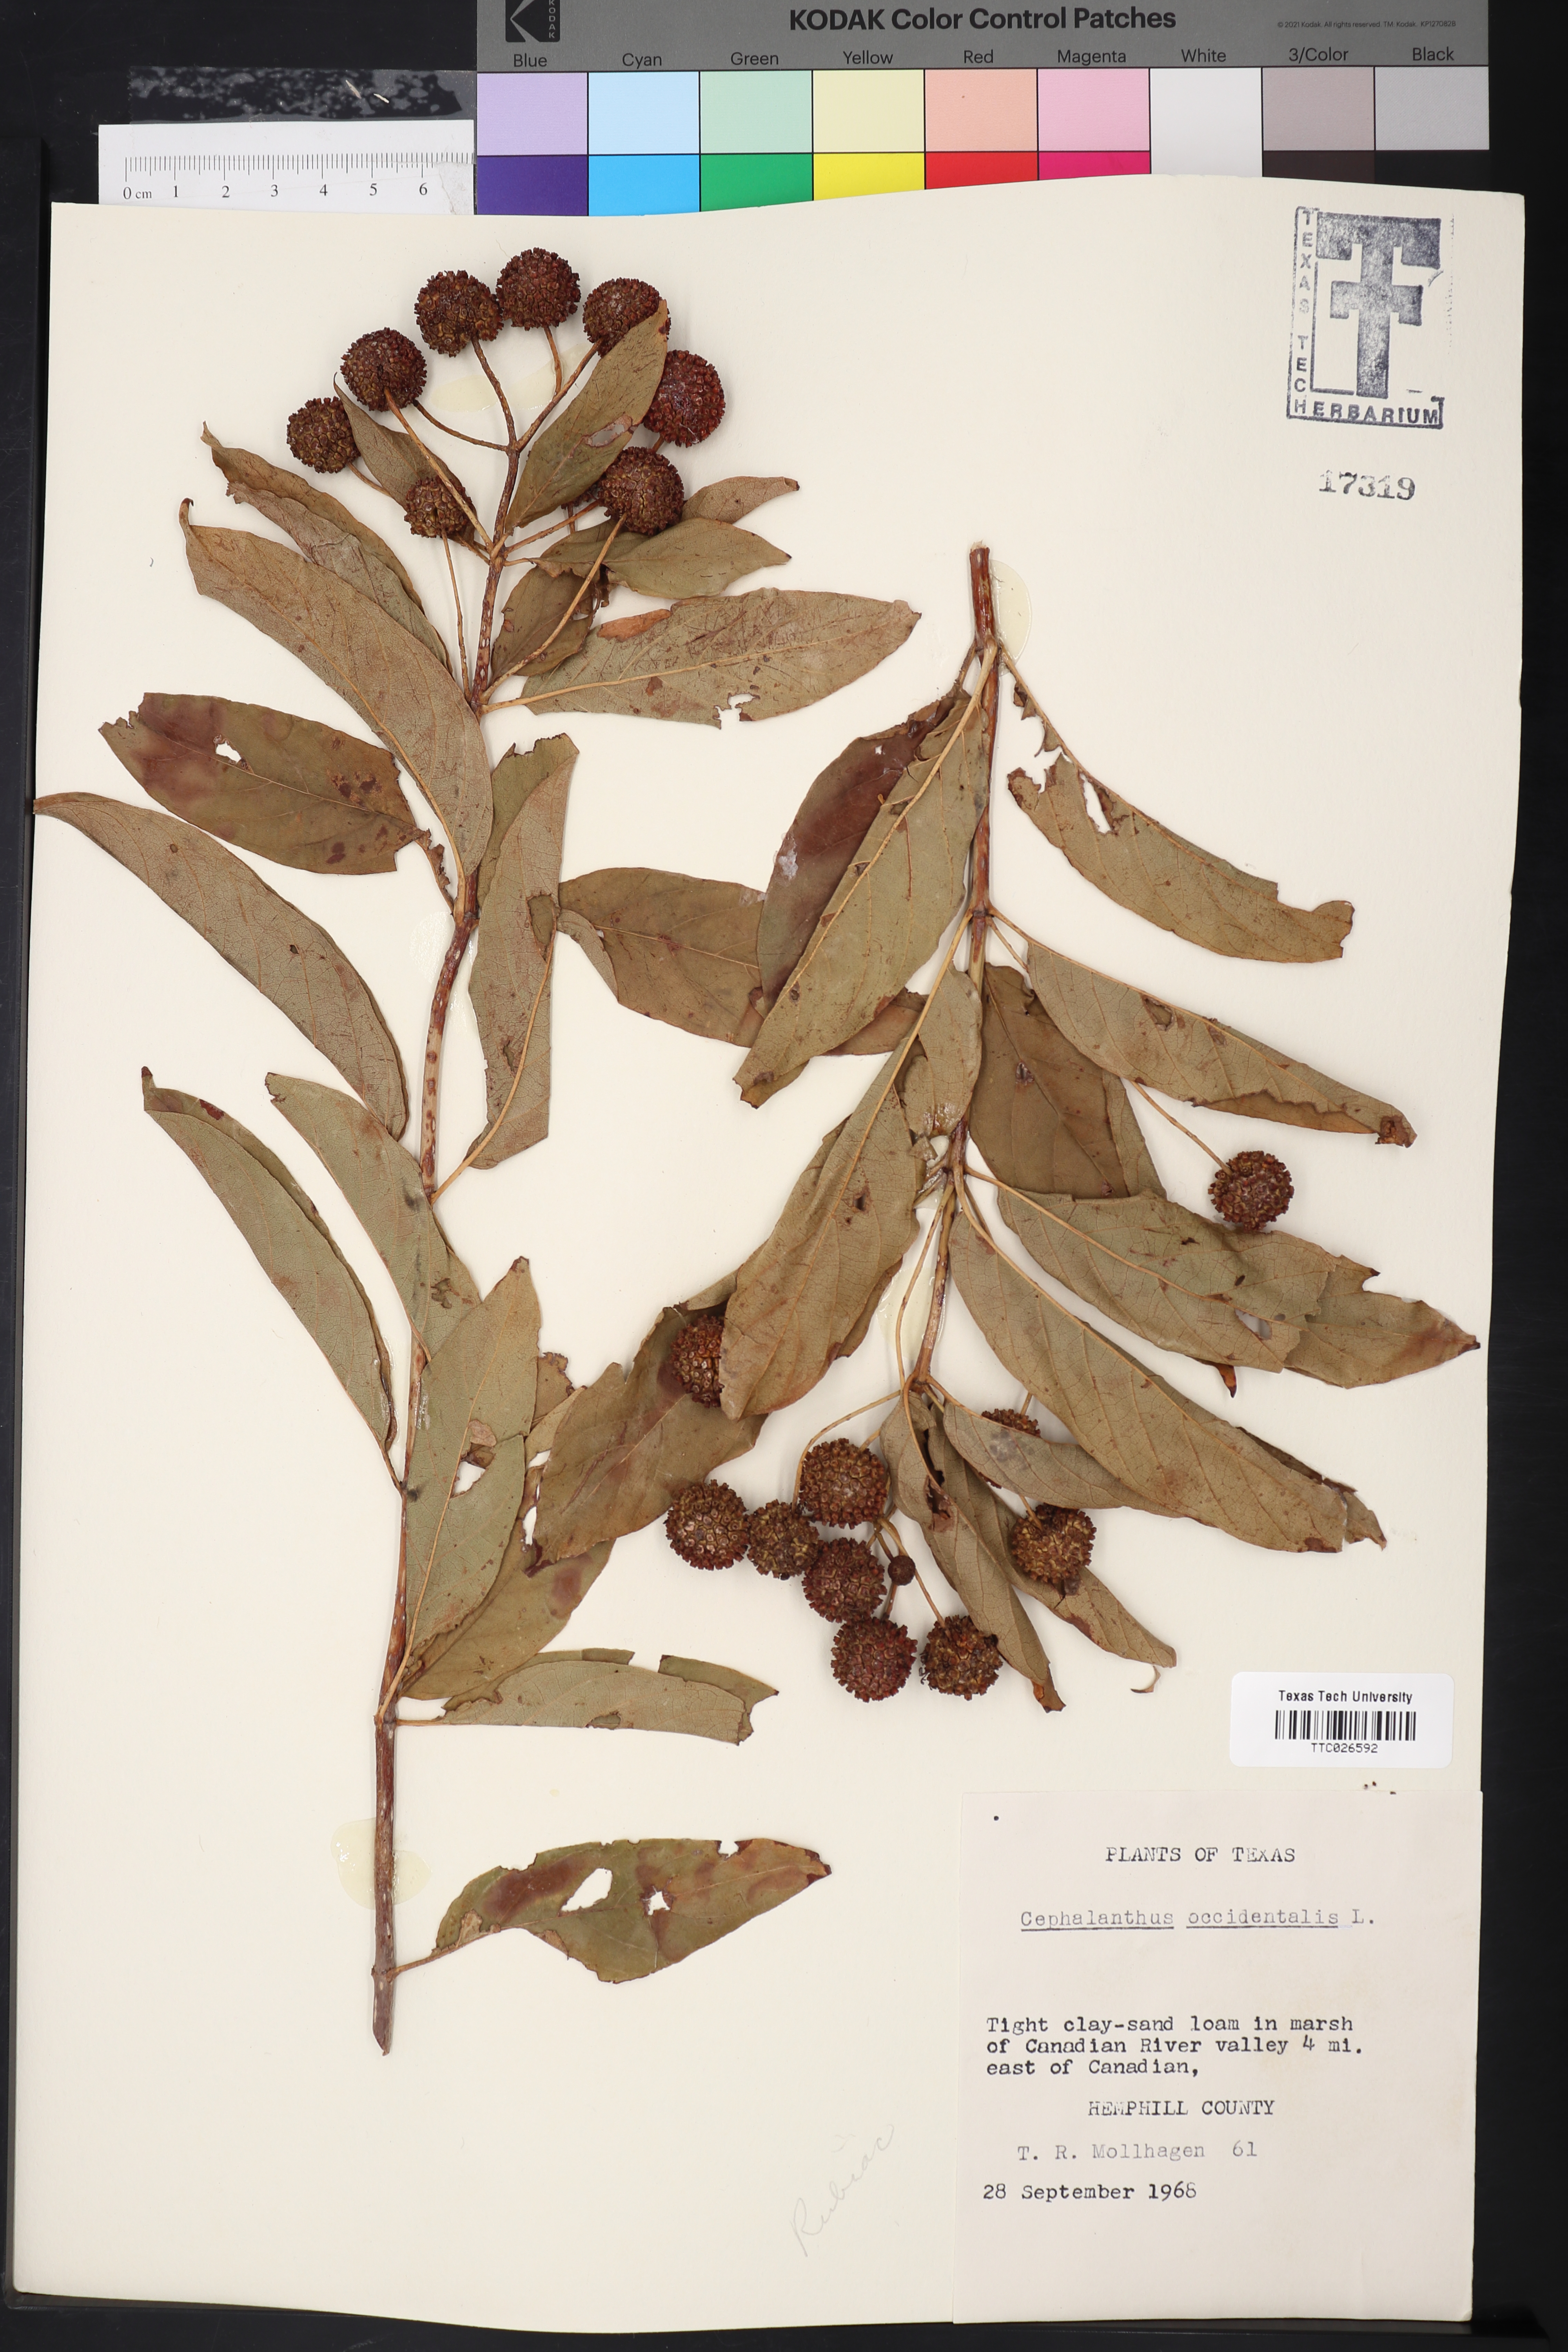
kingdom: Plantae
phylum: Tracheophyta
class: Magnoliopsida
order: Gentianales
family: Rubiaceae
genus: Cephalanthus
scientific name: Cephalanthus occidentalis
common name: Button-willow
